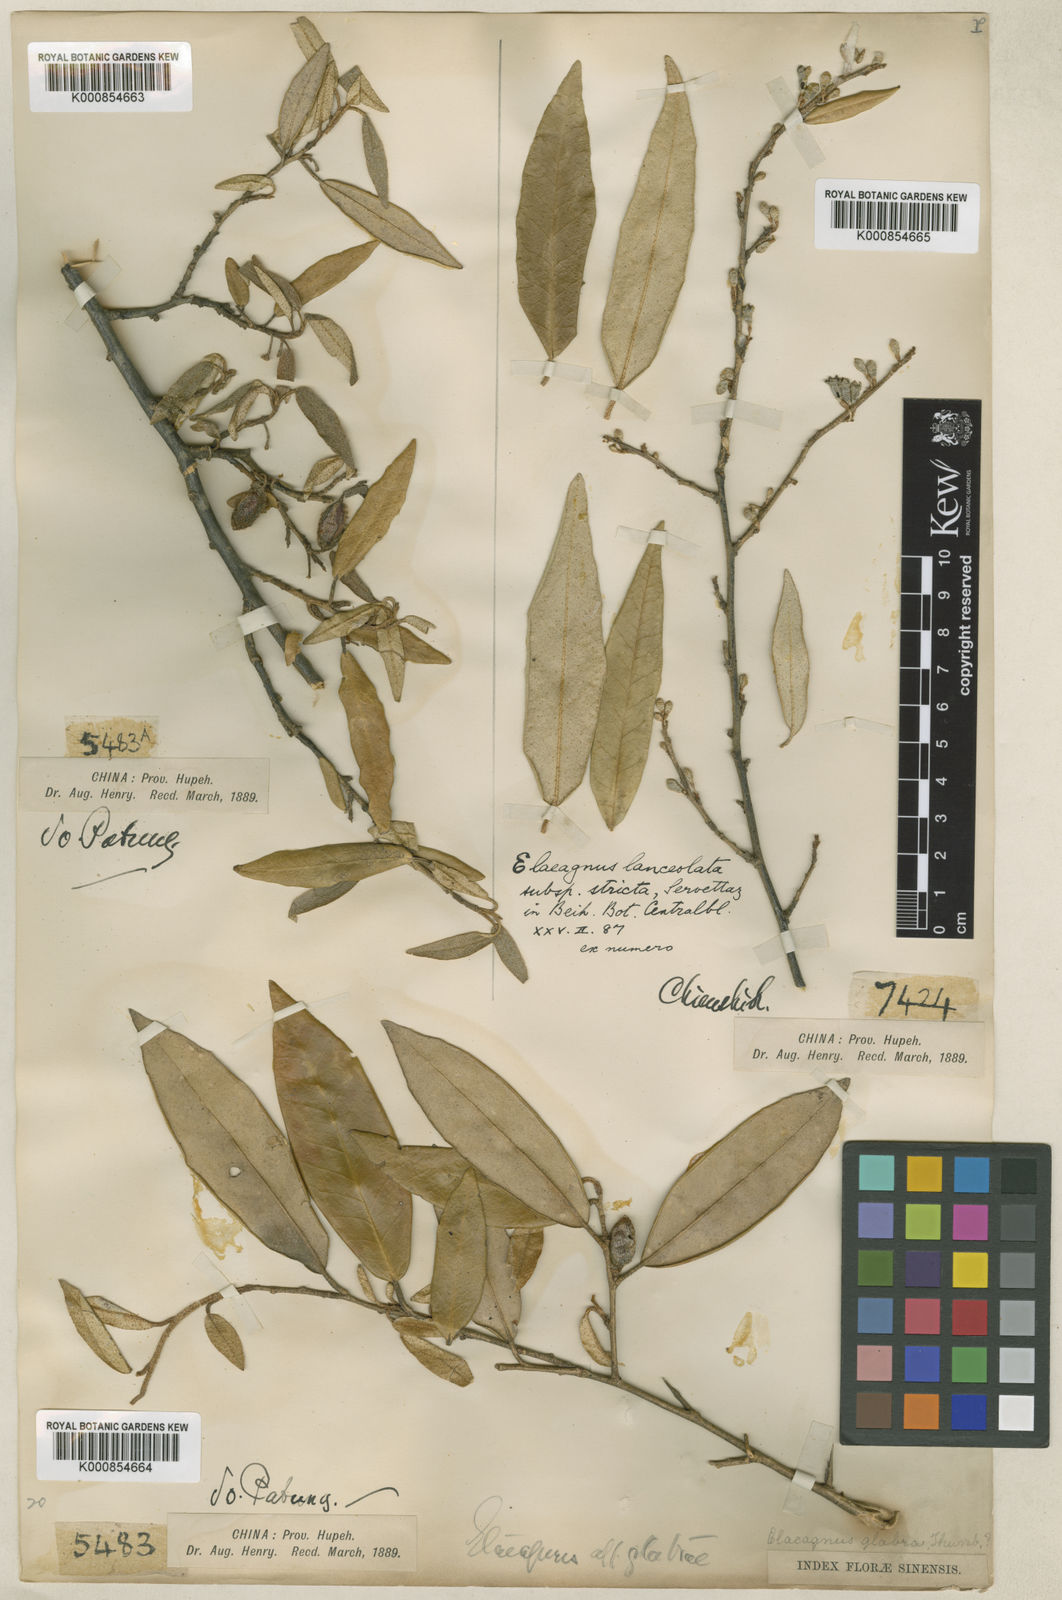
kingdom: Plantae
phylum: Tracheophyta
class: Magnoliopsida
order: Rosales
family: Elaeagnaceae
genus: Elaeagnus
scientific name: Elaeagnus lanceolata
